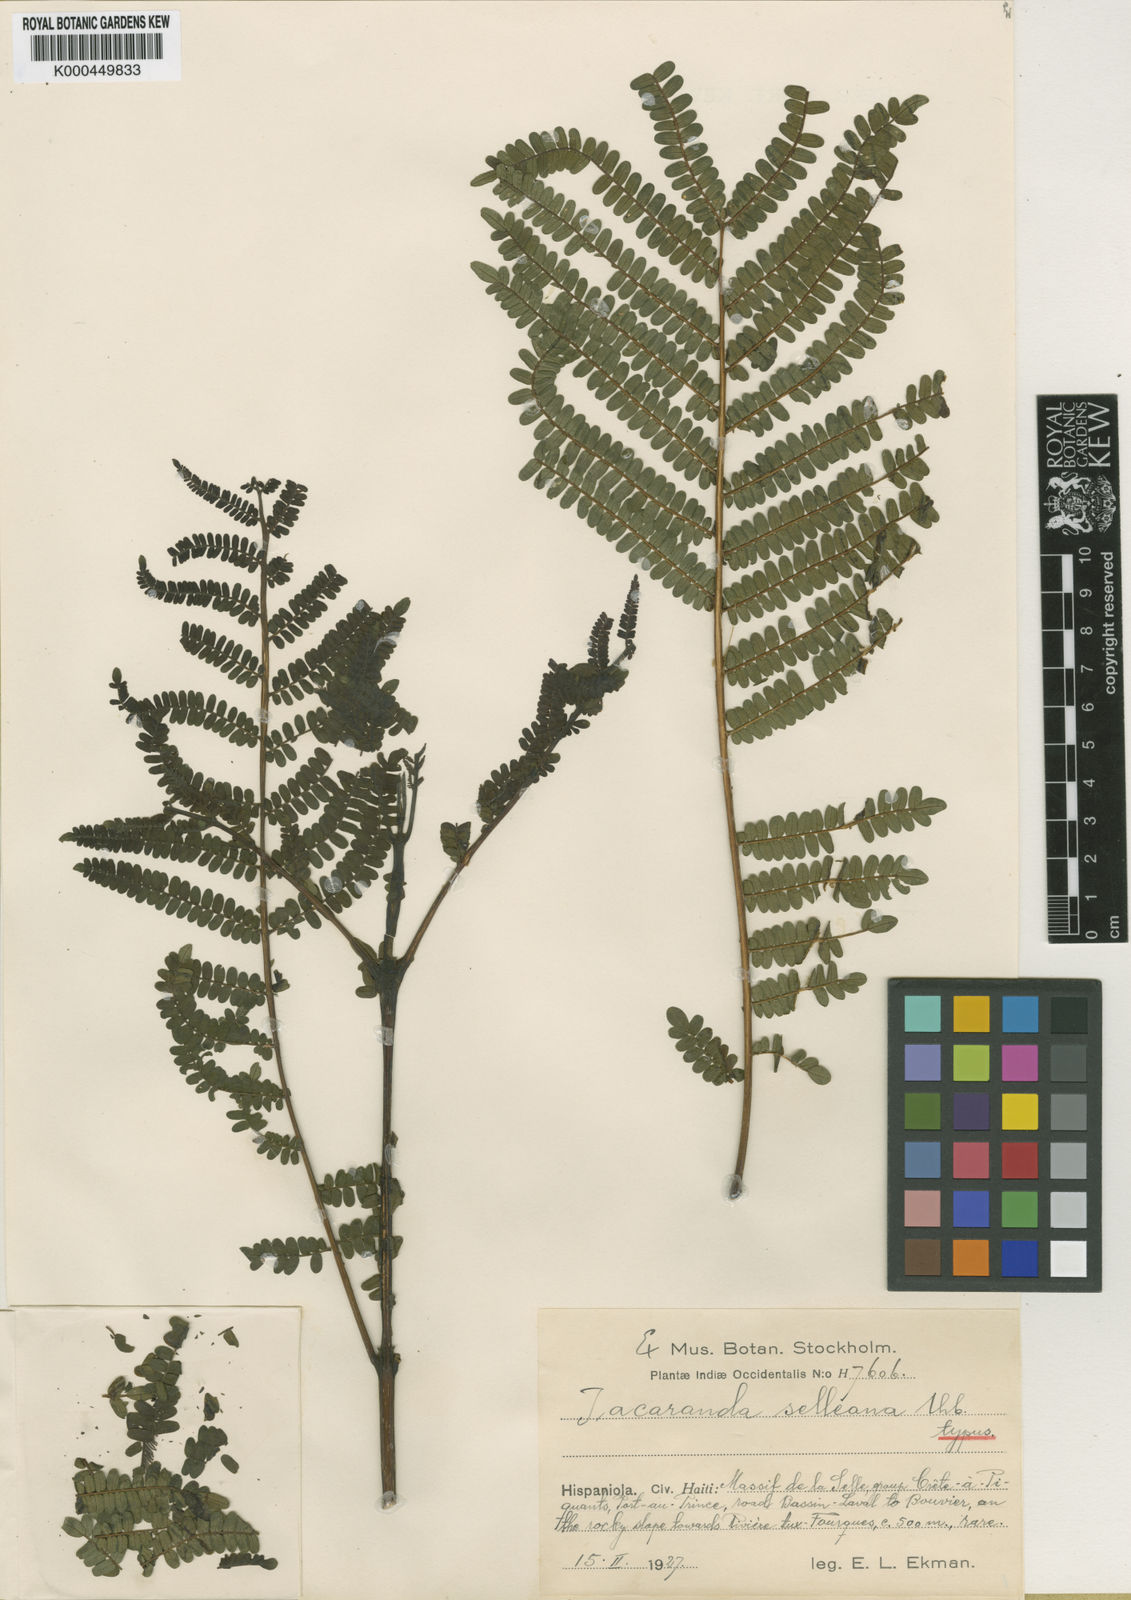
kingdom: Plantae
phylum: Tracheophyta
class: Magnoliopsida
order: Lamiales
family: Bignoniaceae
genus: Jacaranda
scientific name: Jacaranda selleana
